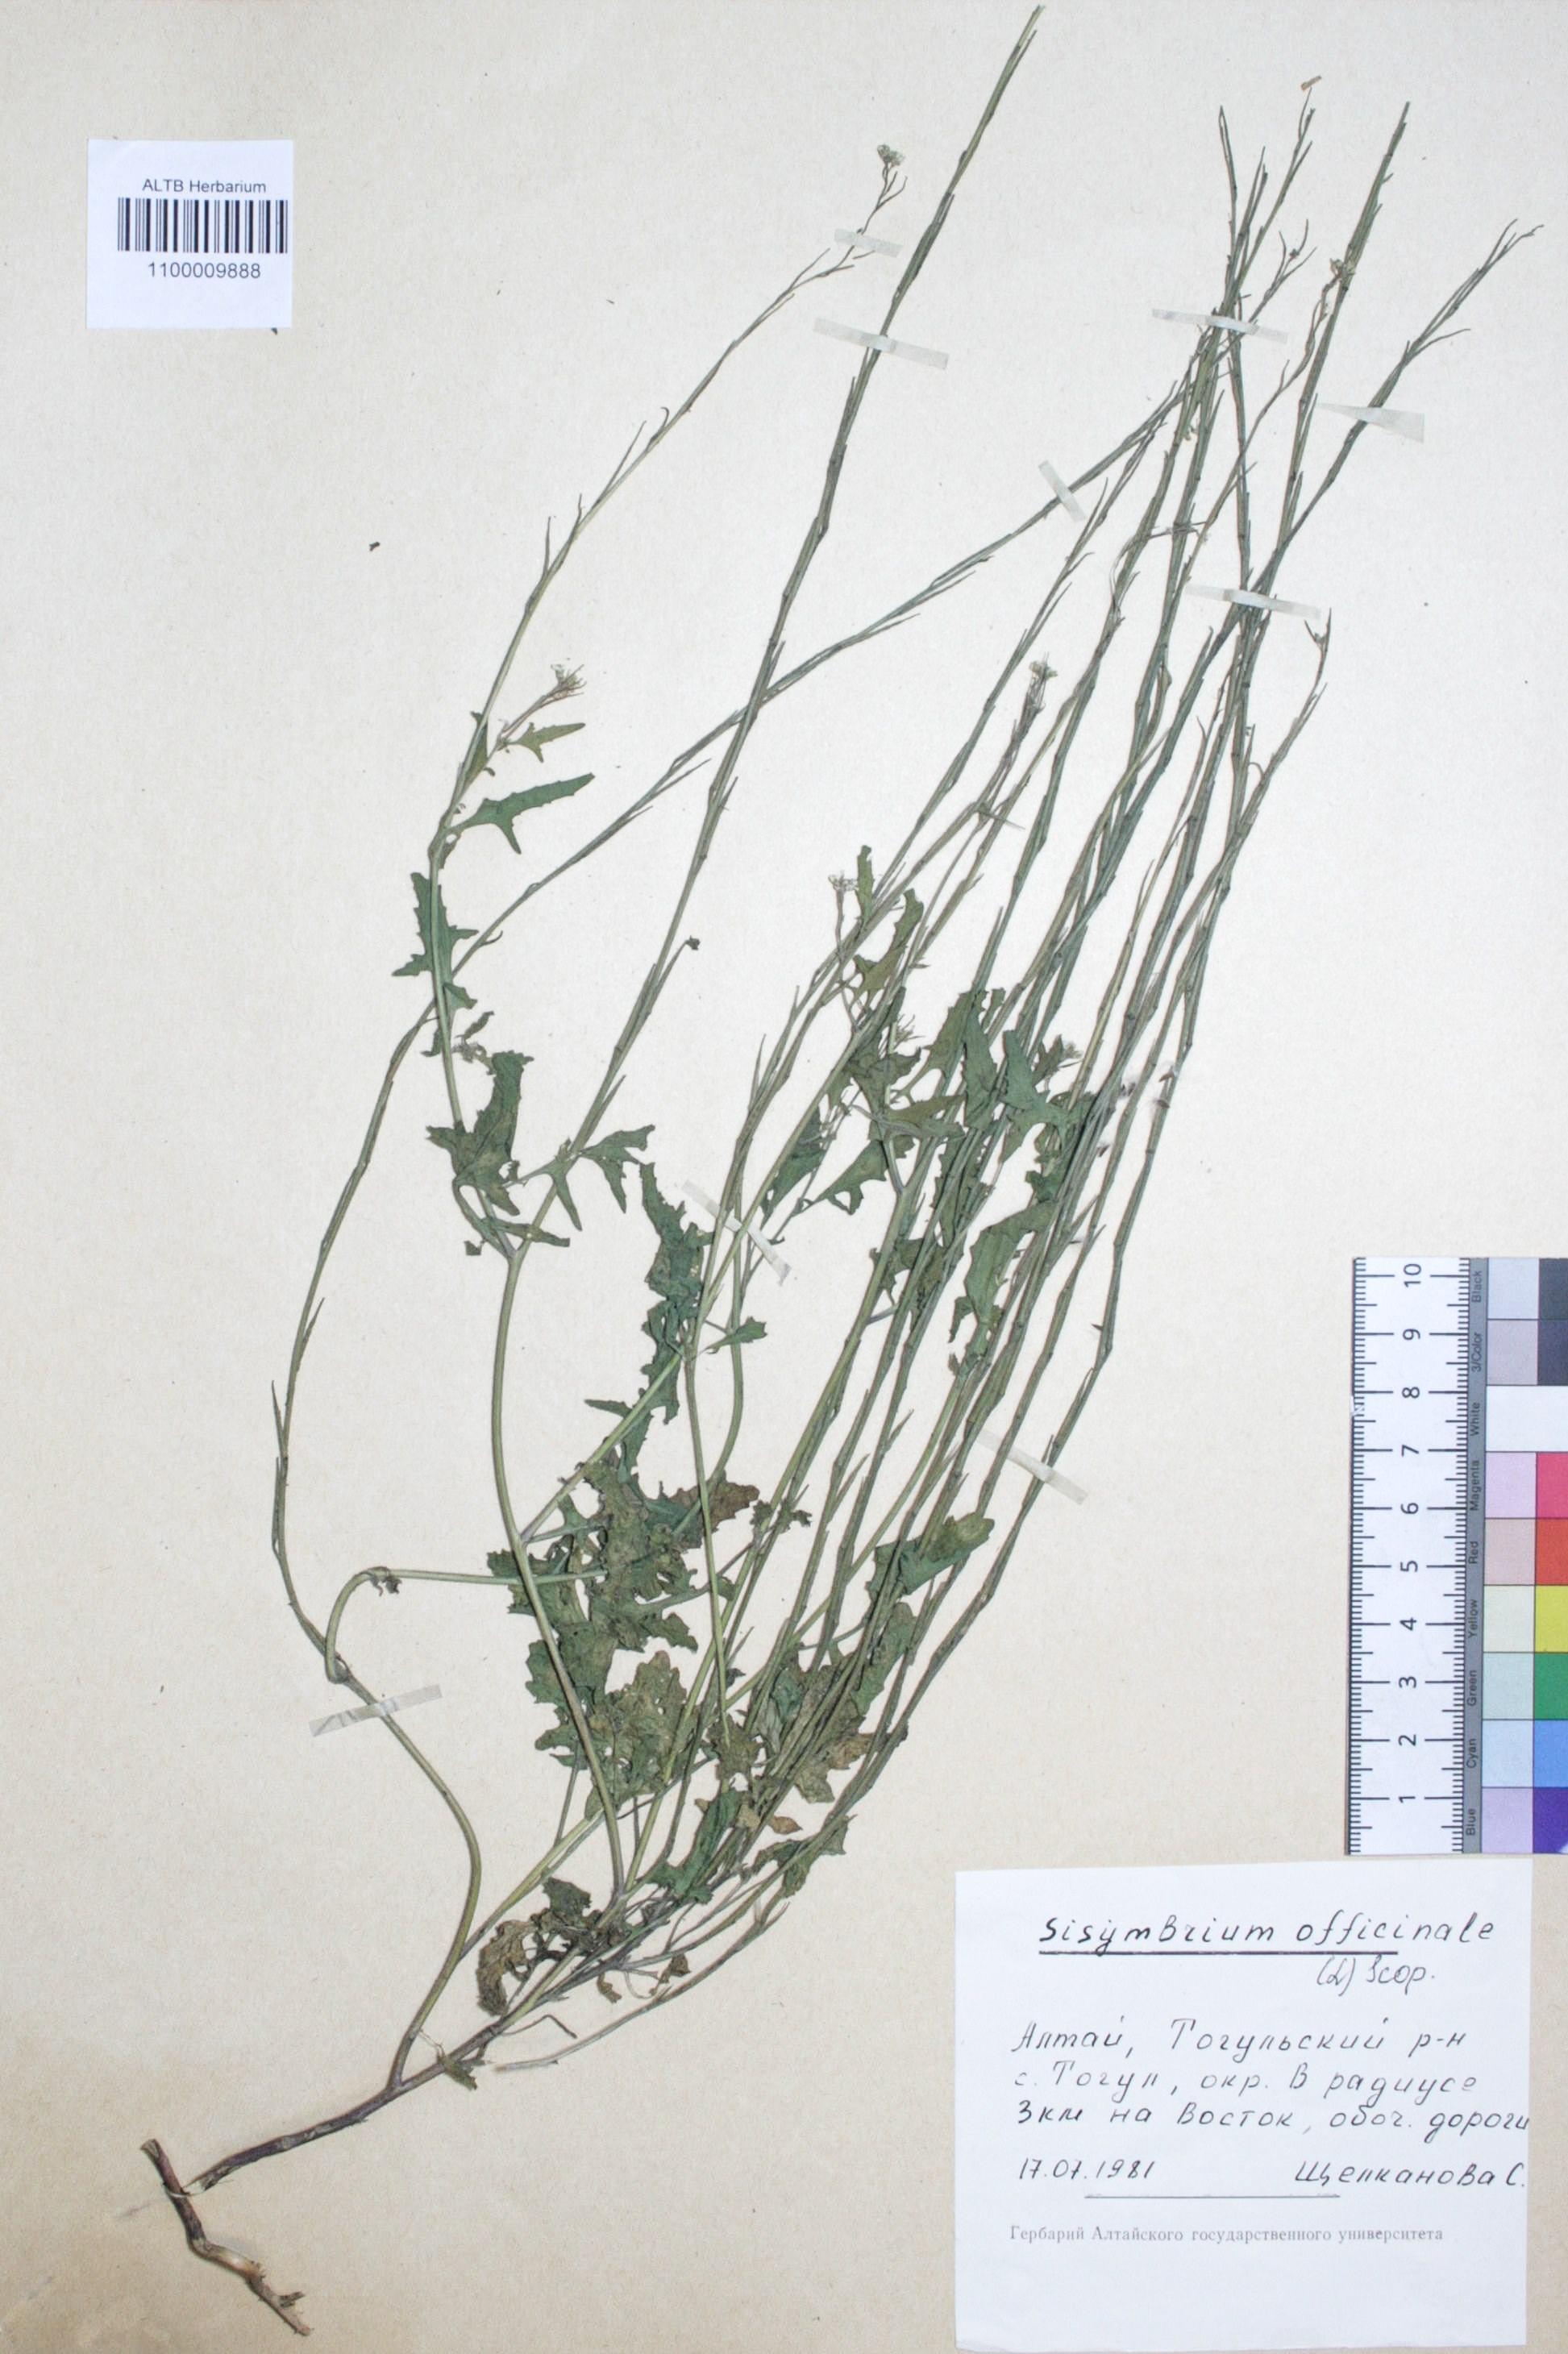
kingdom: Plantae
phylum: Tracheophyta
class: Magnoliopsida
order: Brassicales
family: Brassicaceae
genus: Sisymbrium
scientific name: Sisymbrium officinale
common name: Hedge mustard
